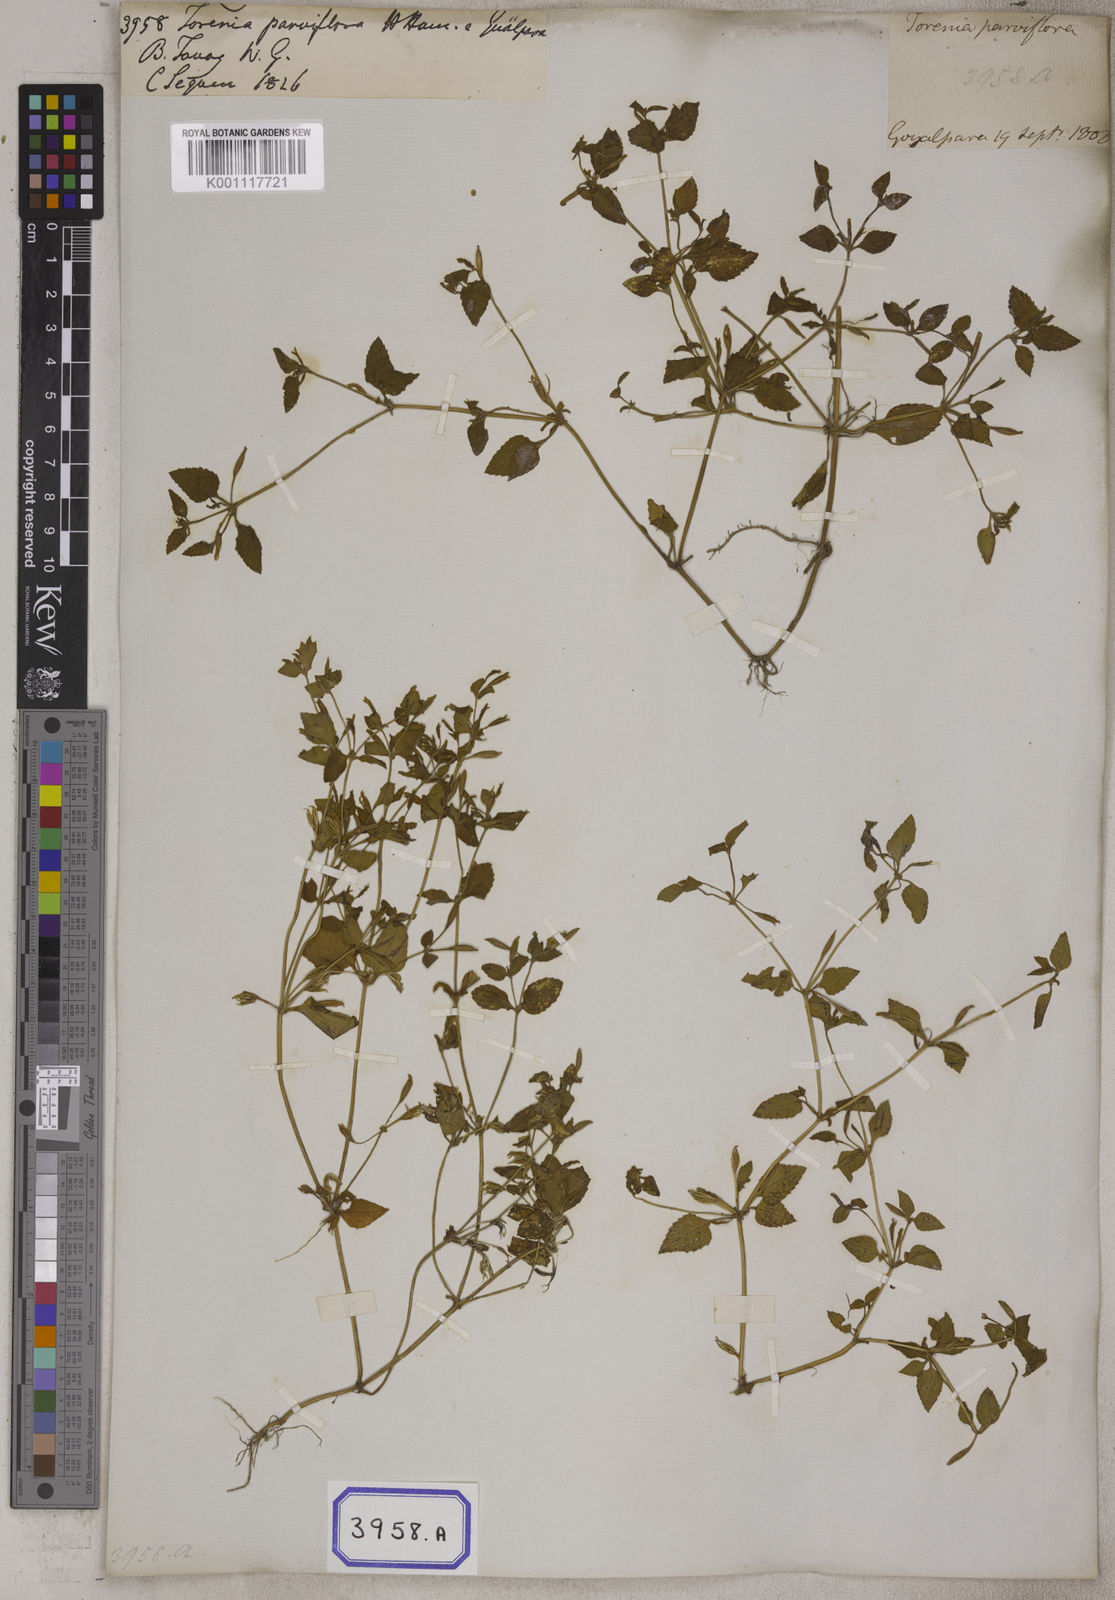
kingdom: Plantae
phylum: Tracheophyta
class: Magnoliopsida
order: Lamiales
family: Linderniaceae
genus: Torenia
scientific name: Torenia
